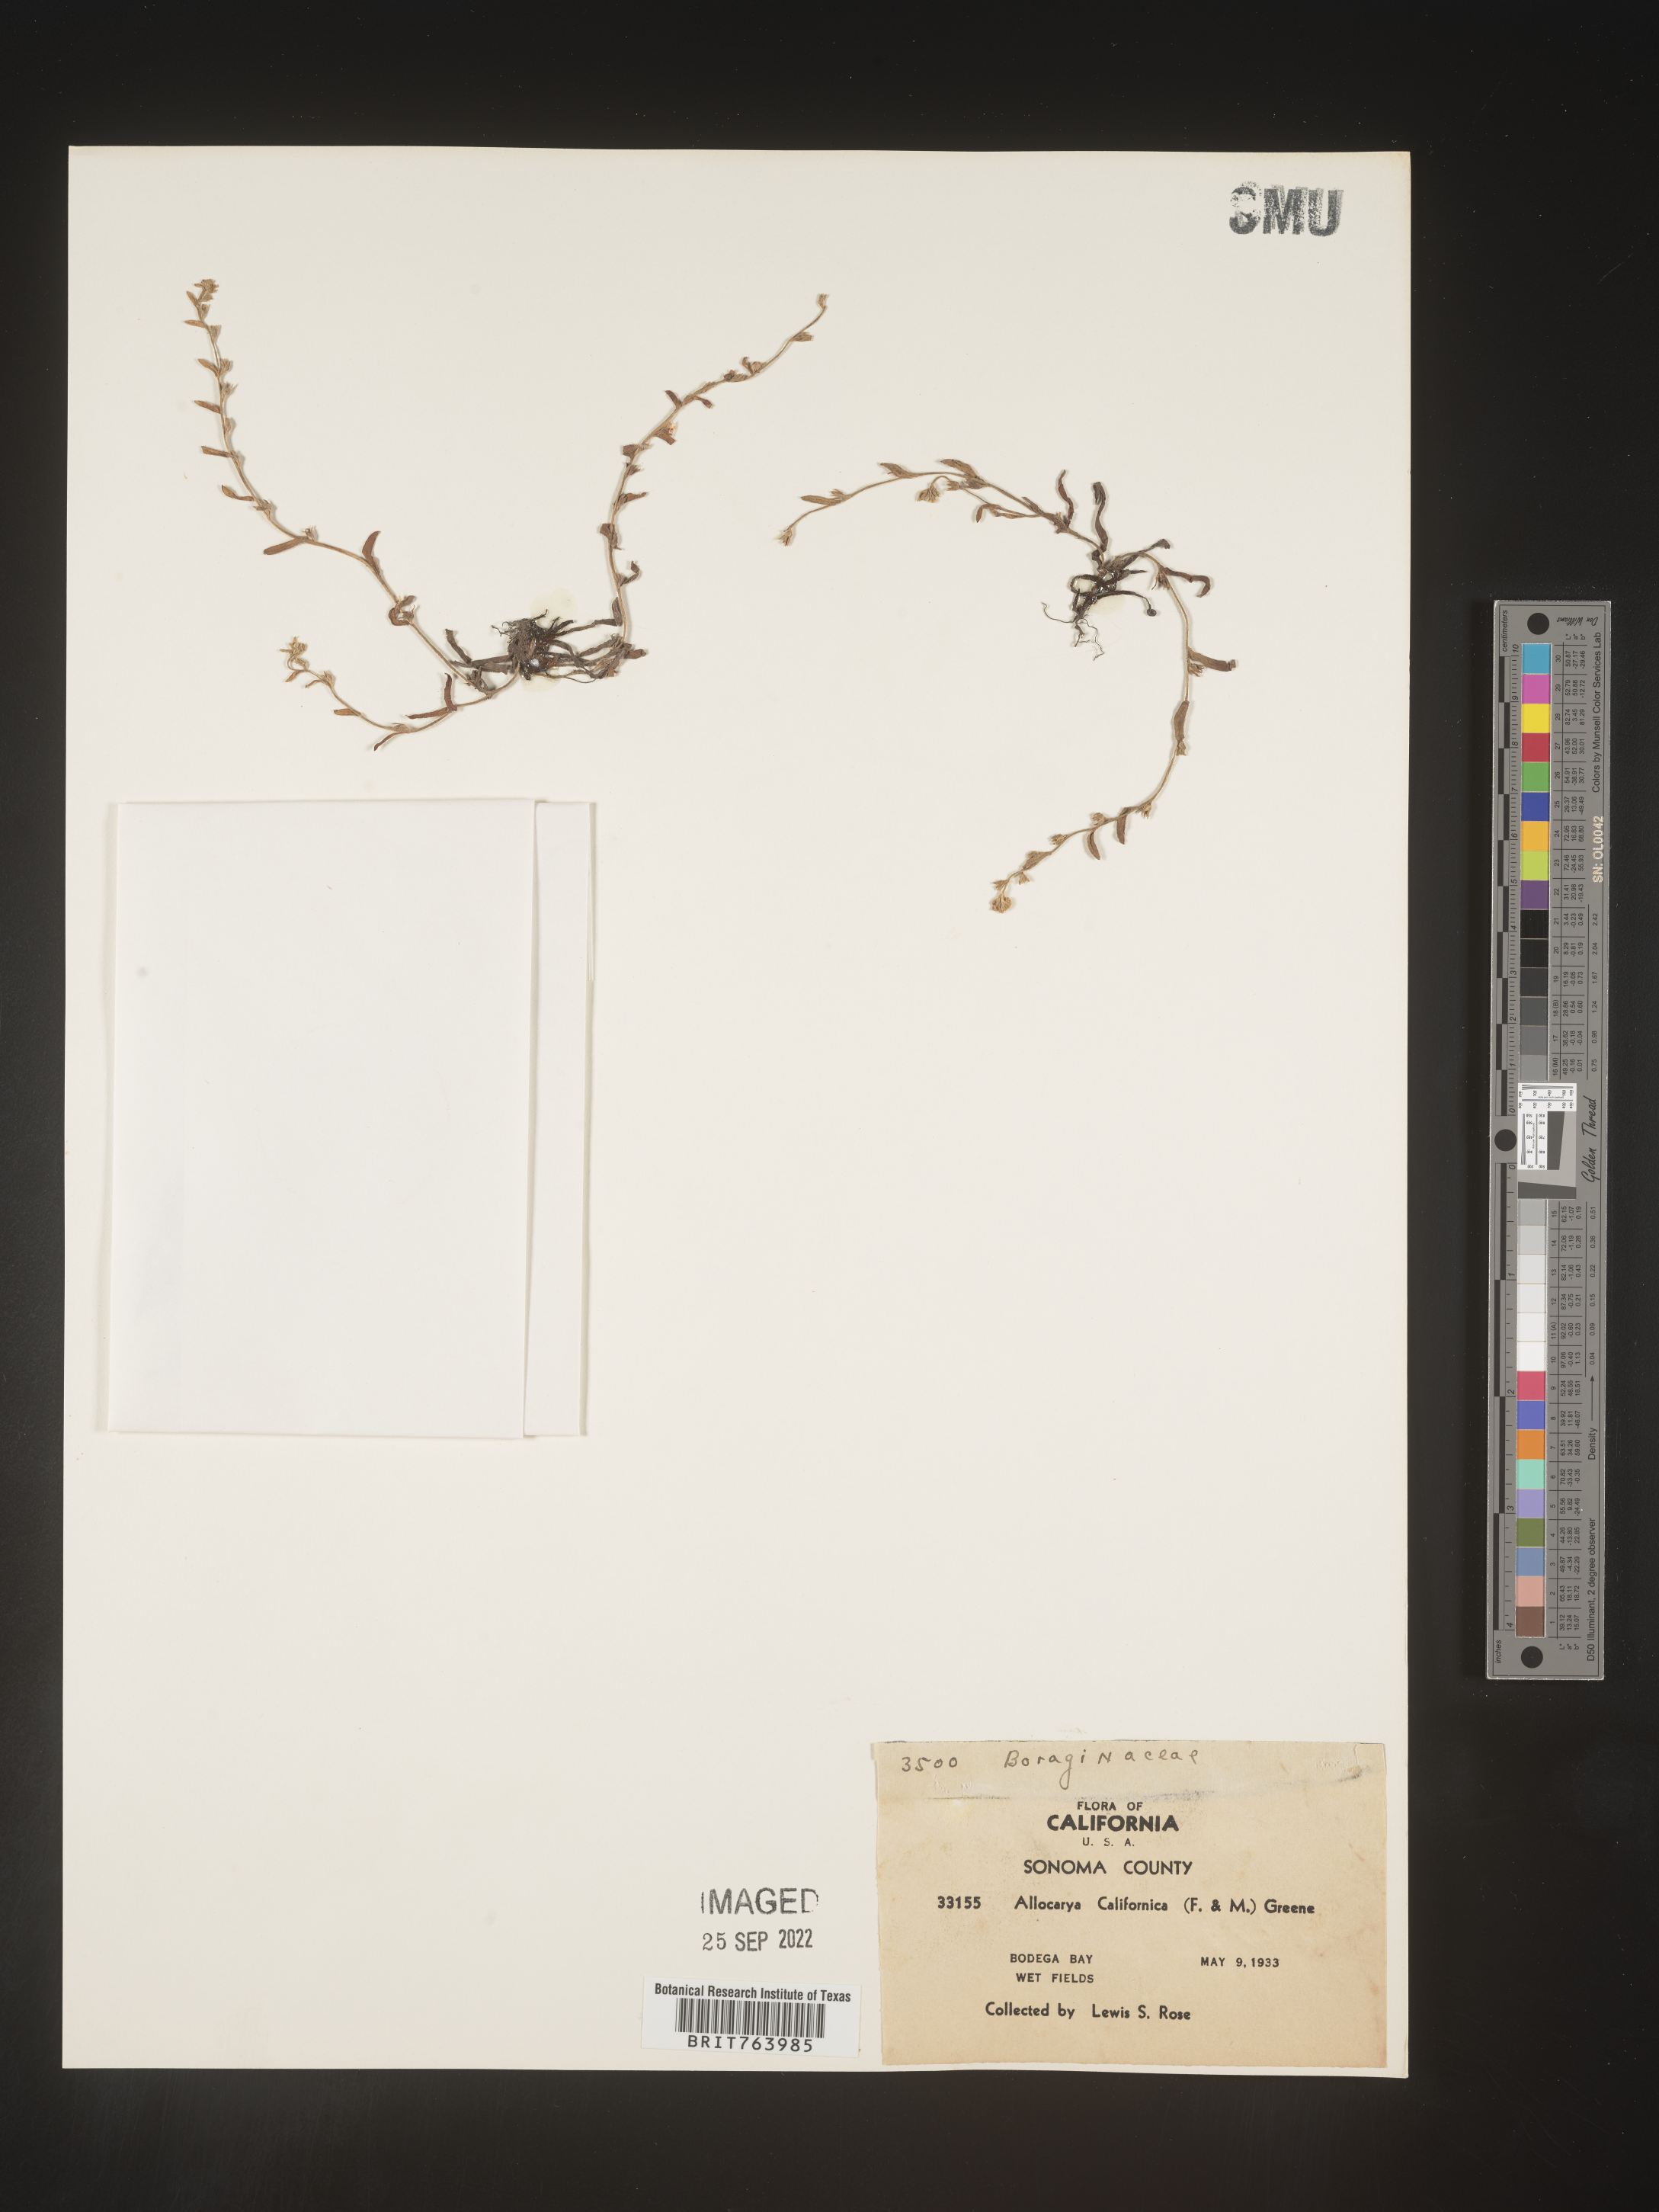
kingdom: Plantae
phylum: Tracheophyta
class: Magnoliopsida
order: Boraginales
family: Boraginaceae
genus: Plagiobothrys
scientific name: Plagiobothrys
